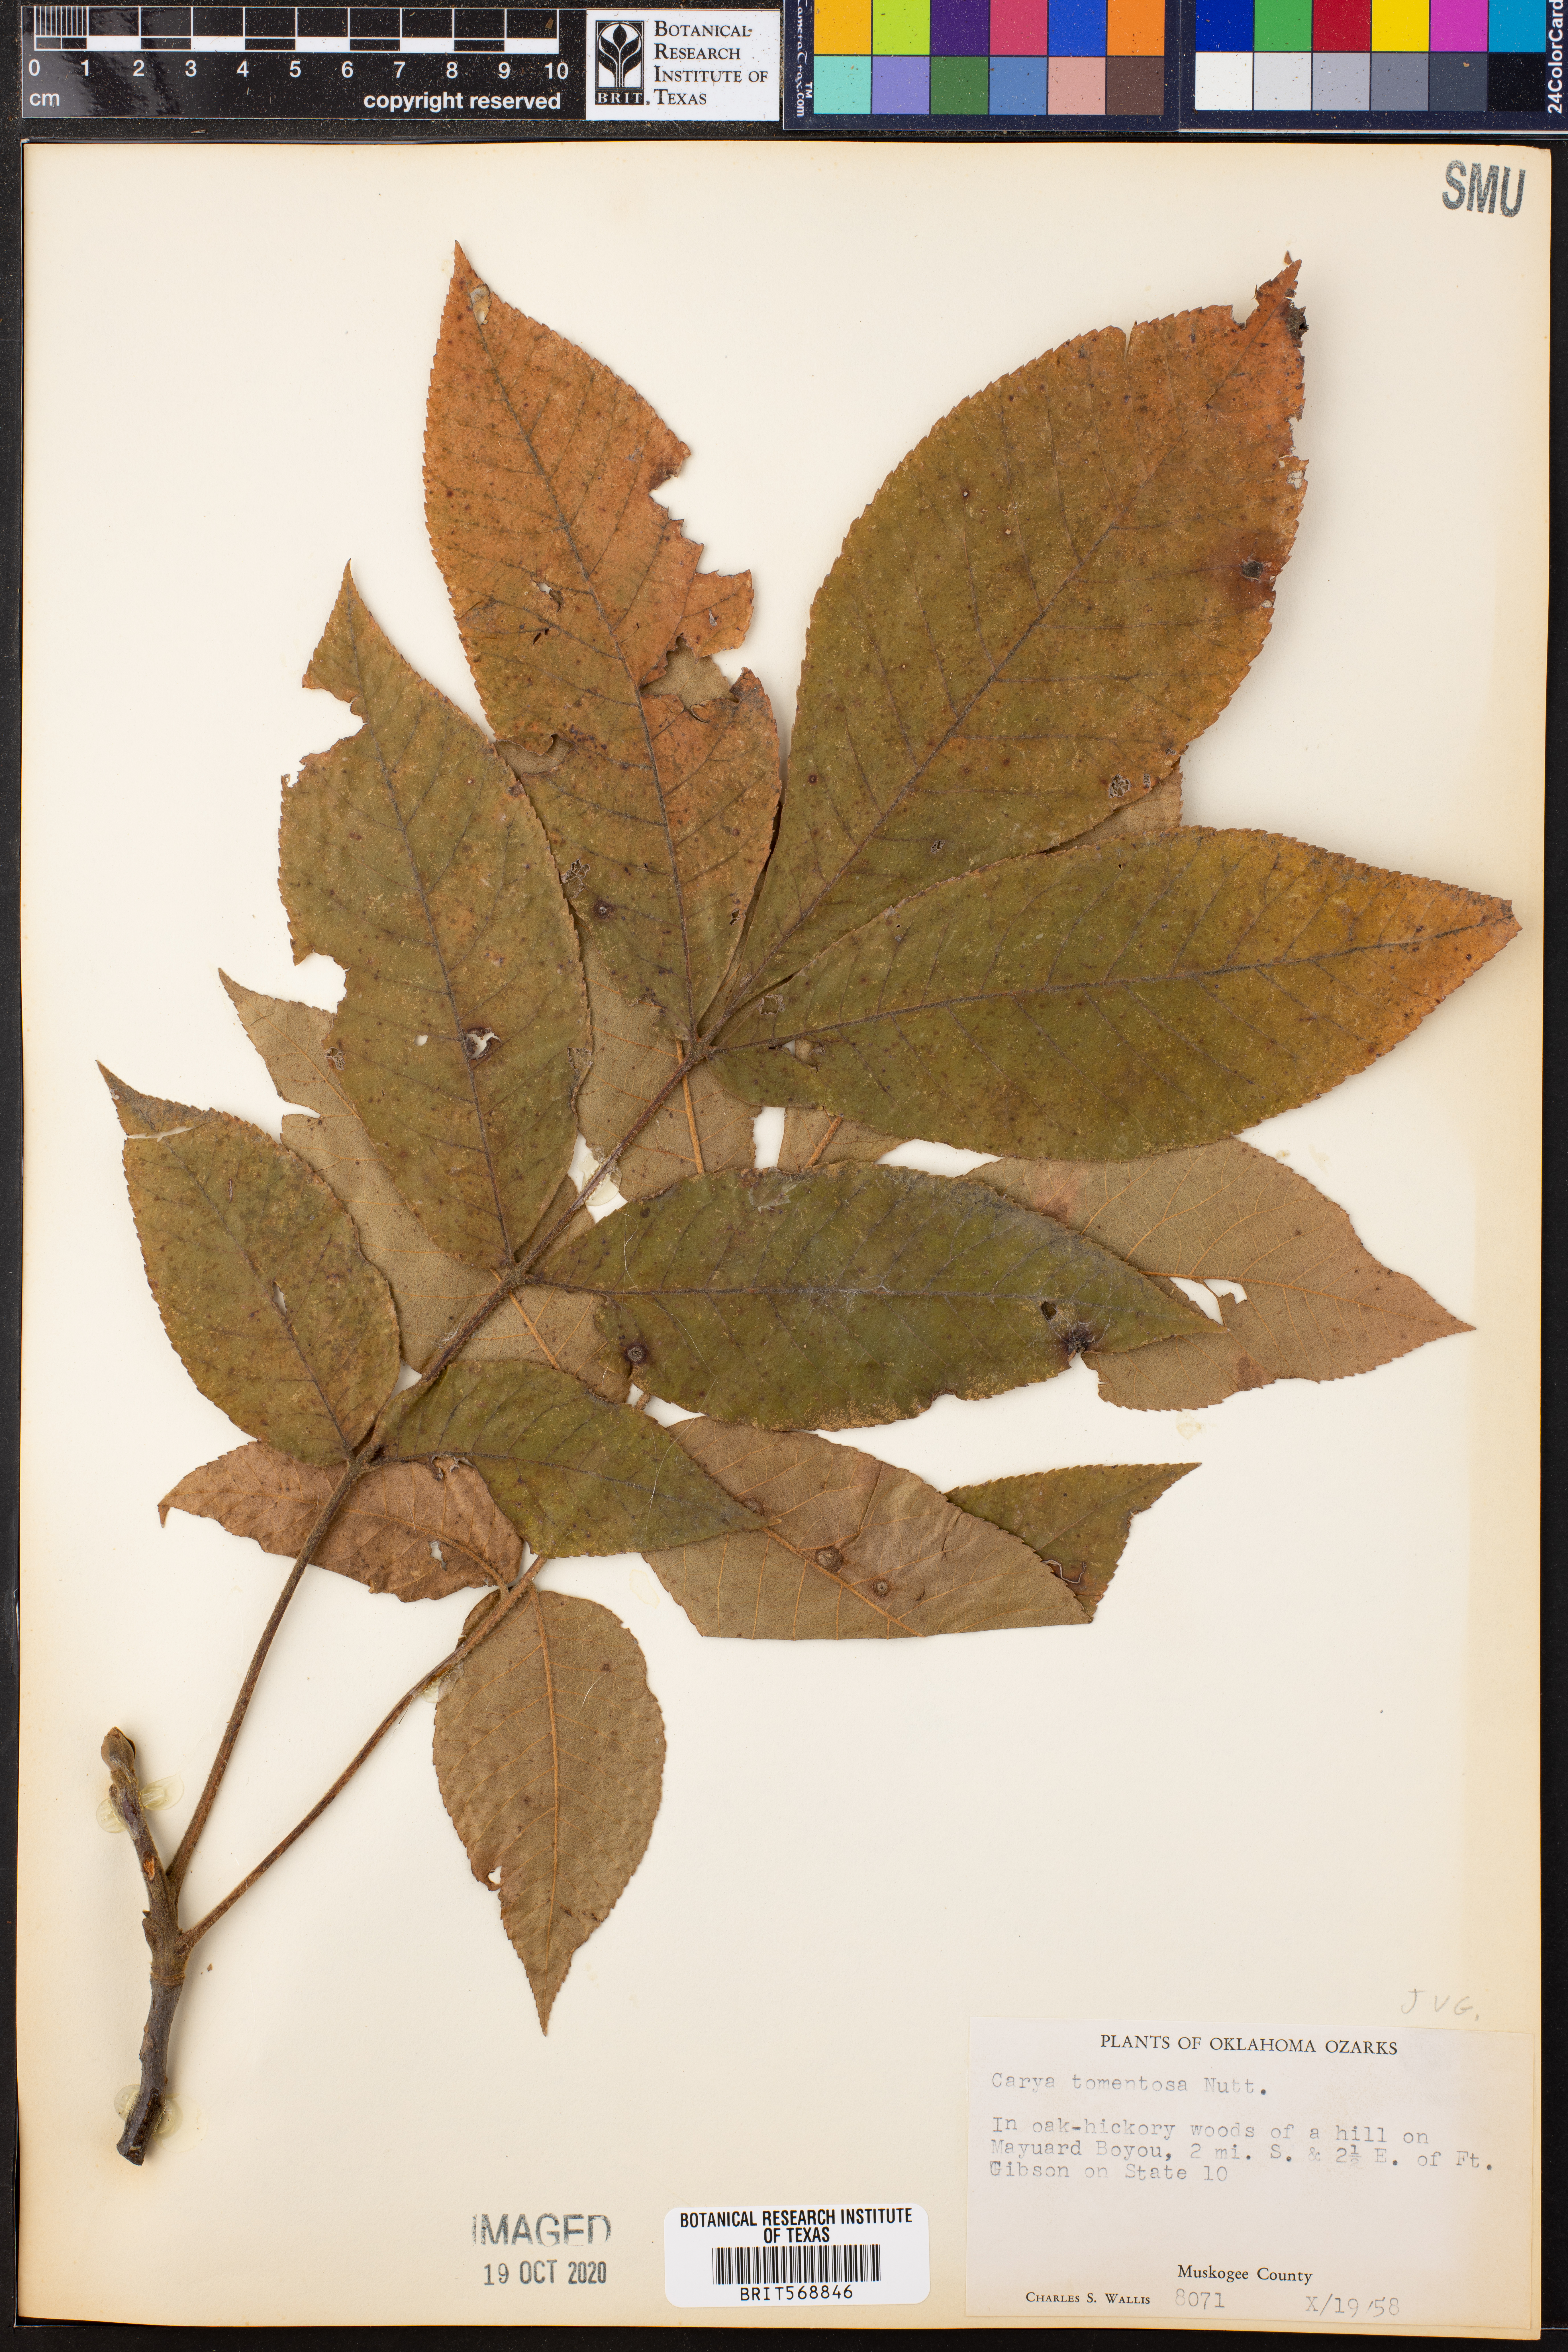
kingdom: Plantae
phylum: Tracheophyta
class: Magnoliopsida
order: Fagales
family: Juglandaceae
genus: Carya
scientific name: Carya alba
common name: Mockernut hickory
